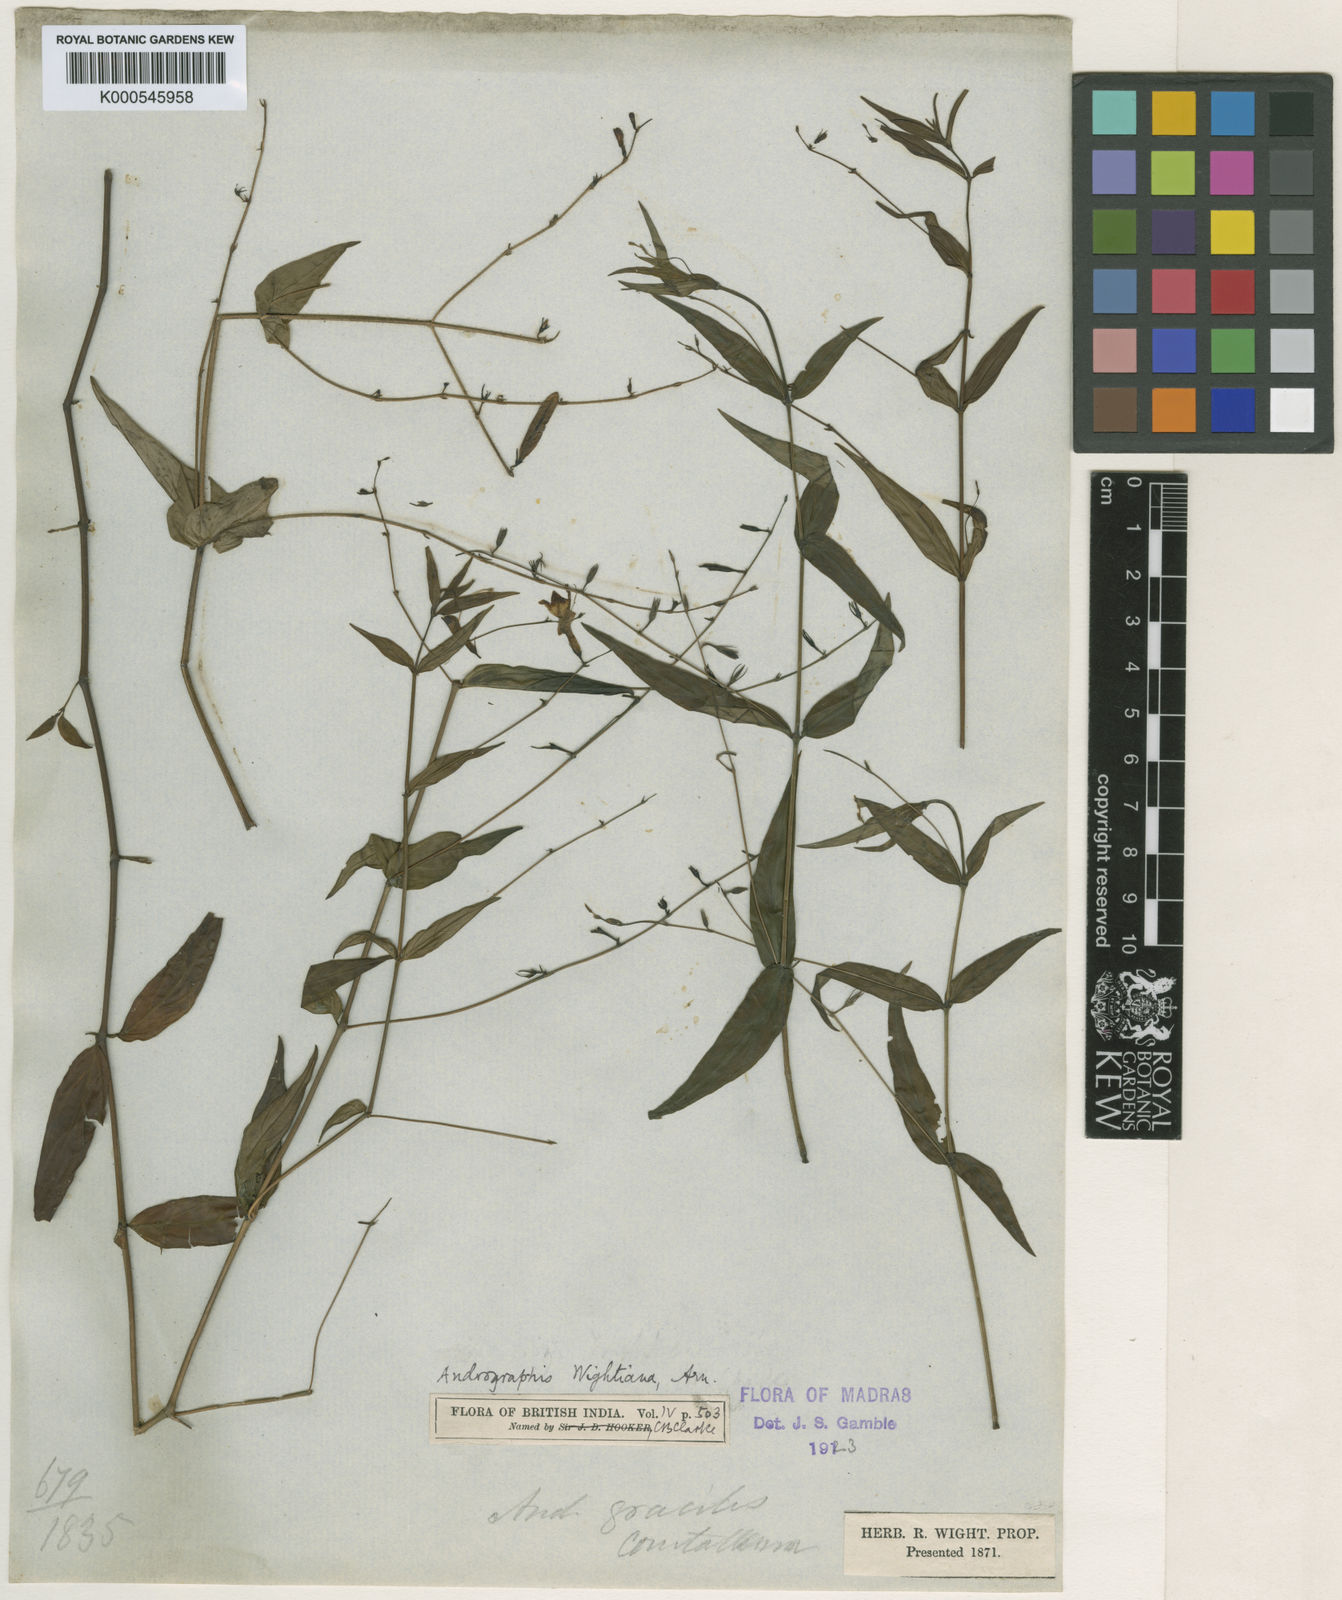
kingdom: Plantae
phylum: Tracheophyta
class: Magnoliopsida
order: Lamiales
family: Acanthaceae
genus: Andrographis
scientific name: Andrographis atropurpurea
